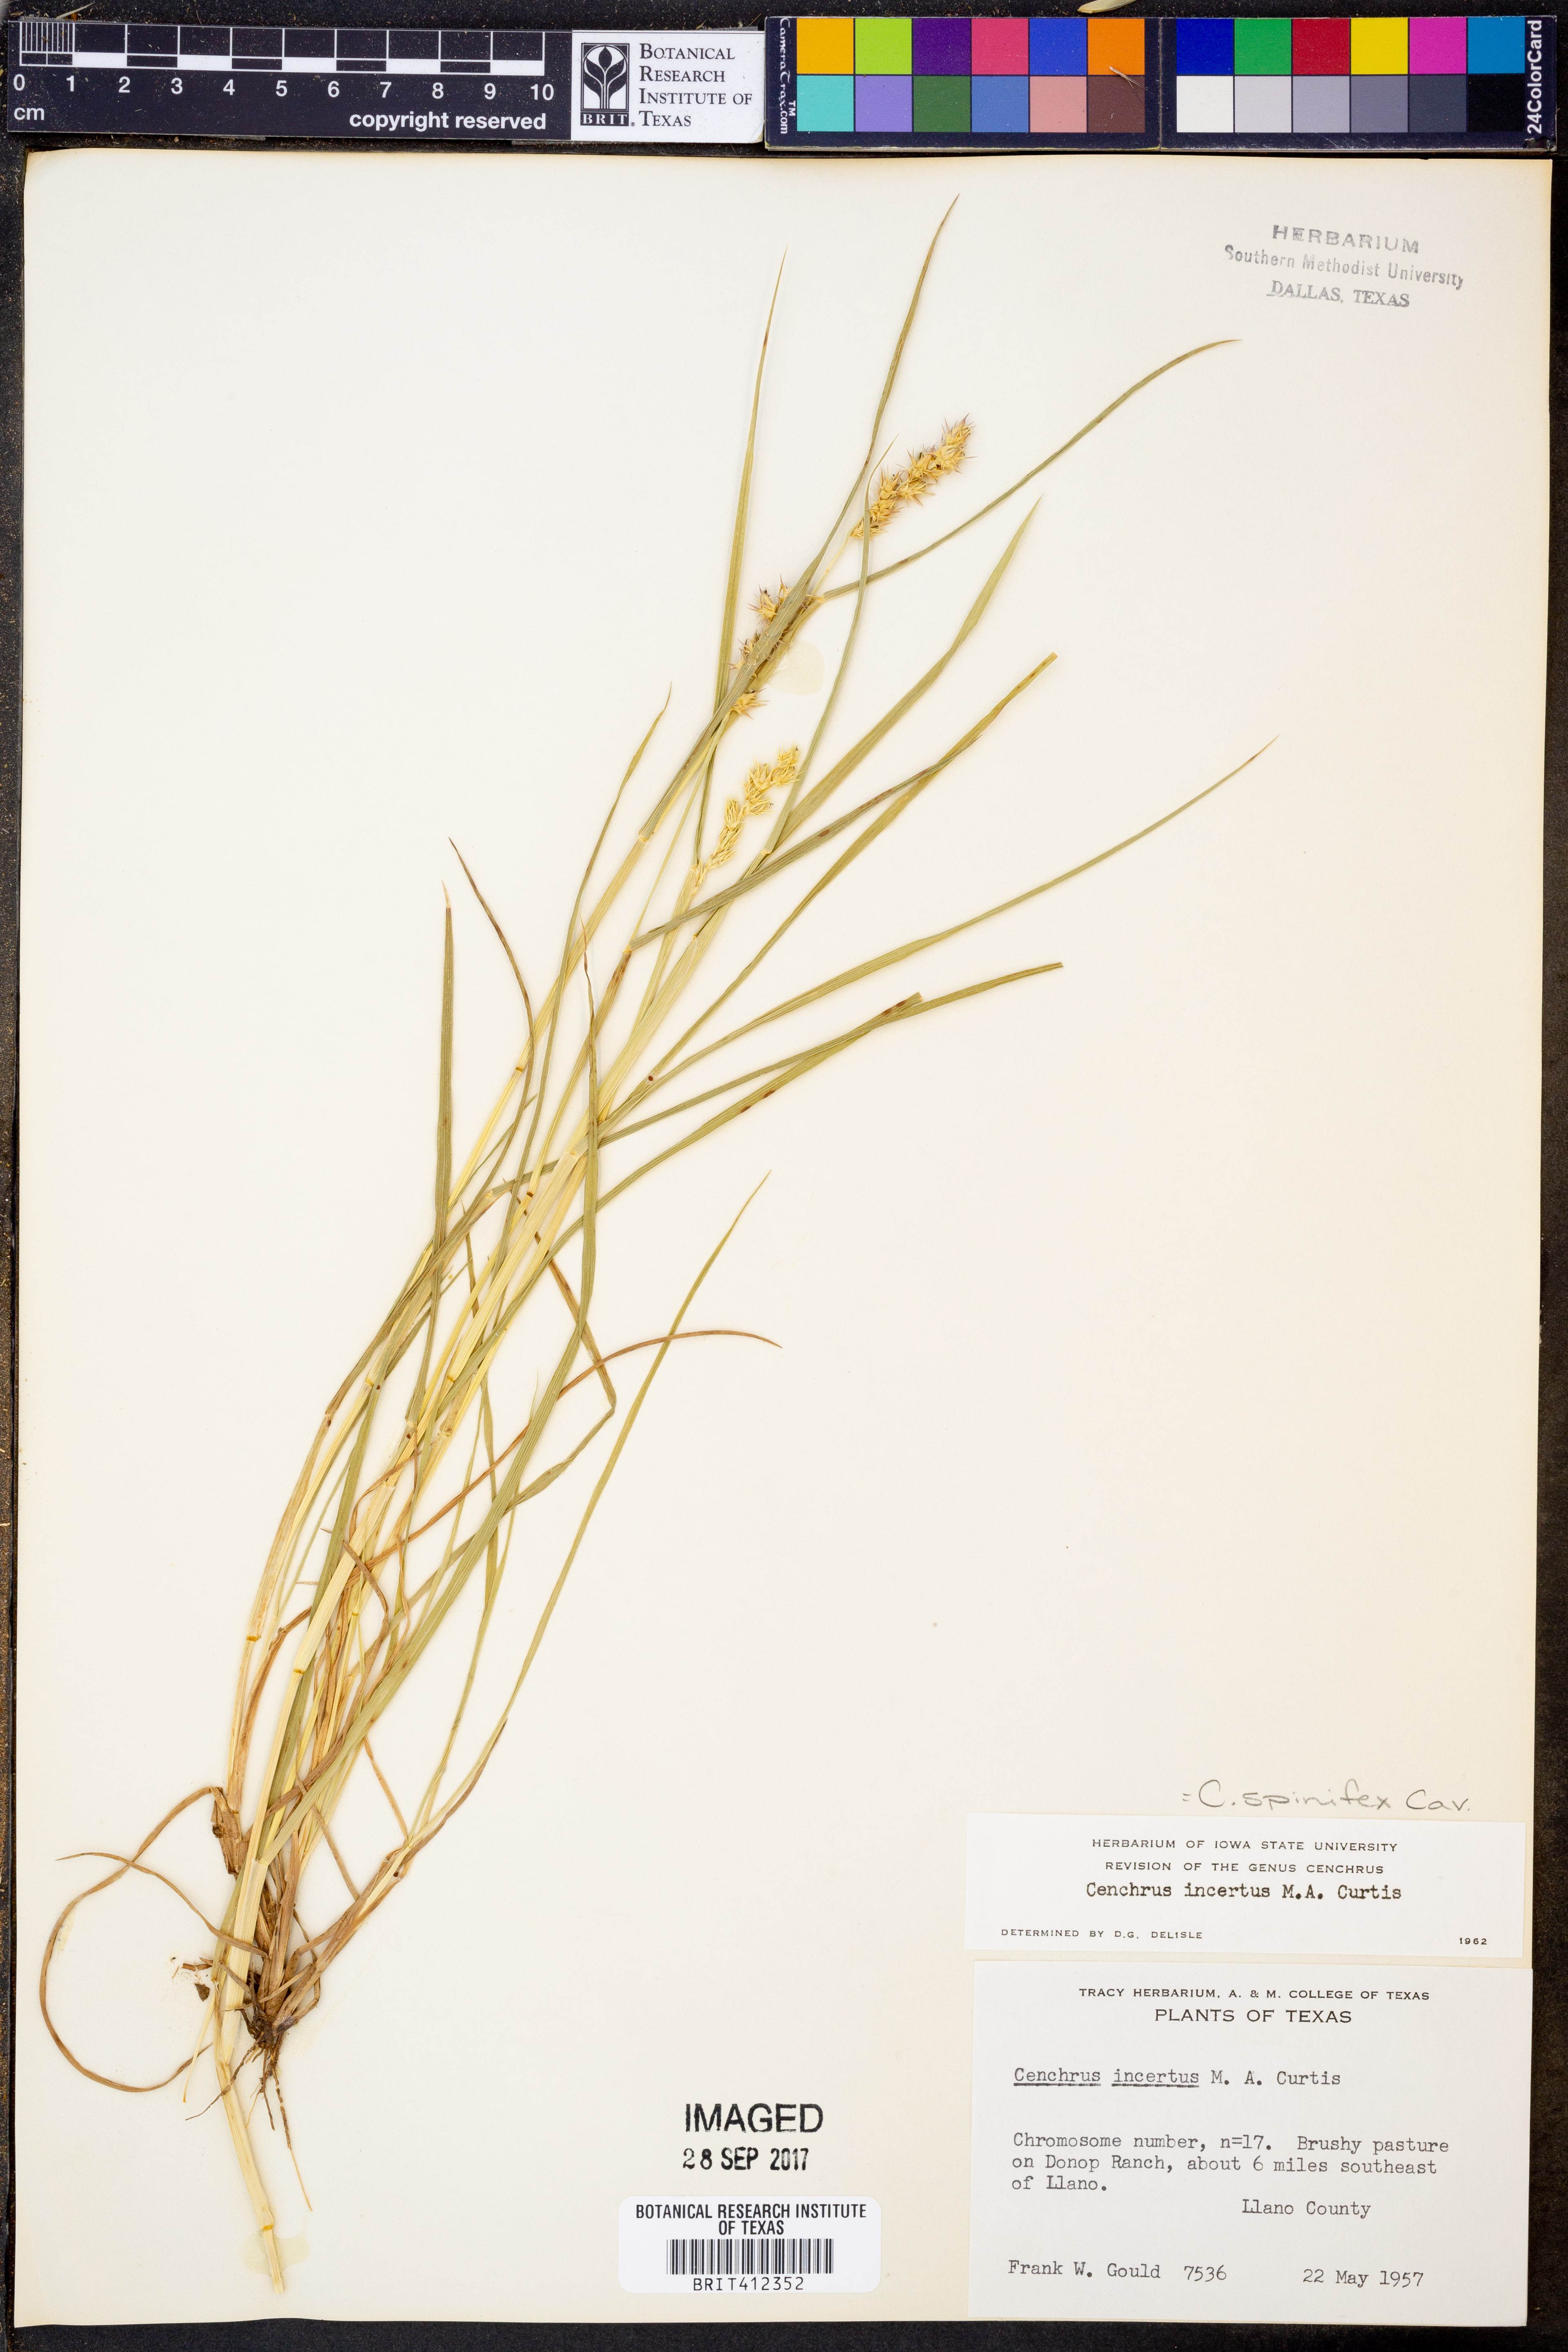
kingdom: Plantae
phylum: Tracheophyta
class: Liliopsida
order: Poales
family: Poaceae
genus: Cenchrus
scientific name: Cenchrus spinifex
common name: Coast sandbur
